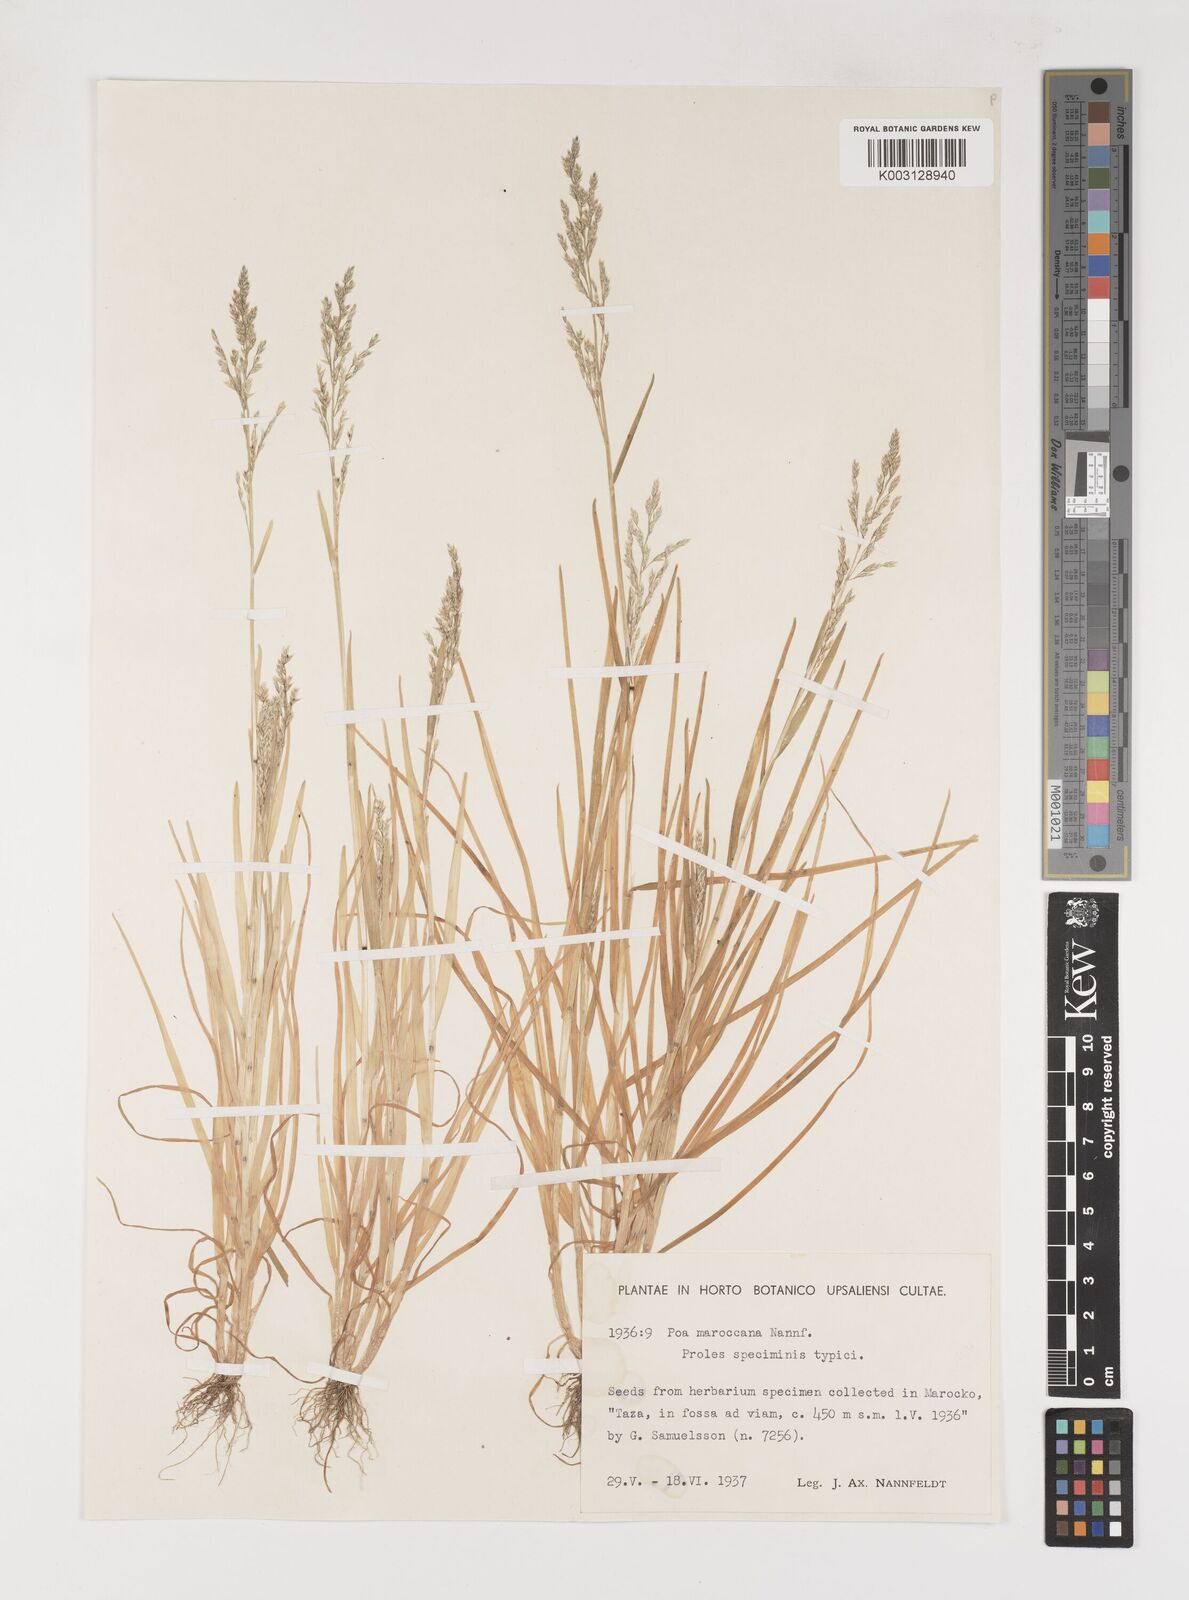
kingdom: Plantae
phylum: Tracheophyta
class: Liliopsida
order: Poales
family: Poaceae
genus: Poa
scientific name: Poa infirma
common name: Weak bluegrass
